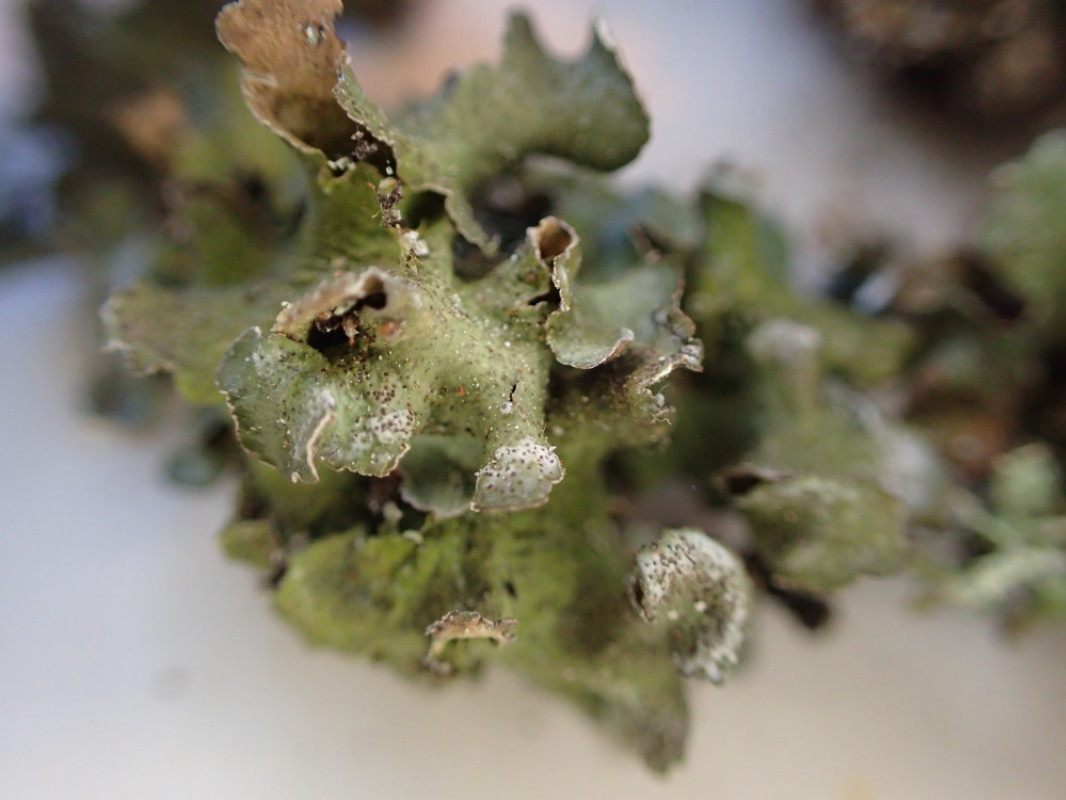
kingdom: Fungi
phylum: Ascomycota
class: Lecanoromycetes
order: Lecanorales
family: Parmeliaceae
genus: Platismatia
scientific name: Platismatia glauca
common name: blågrå papirlav
